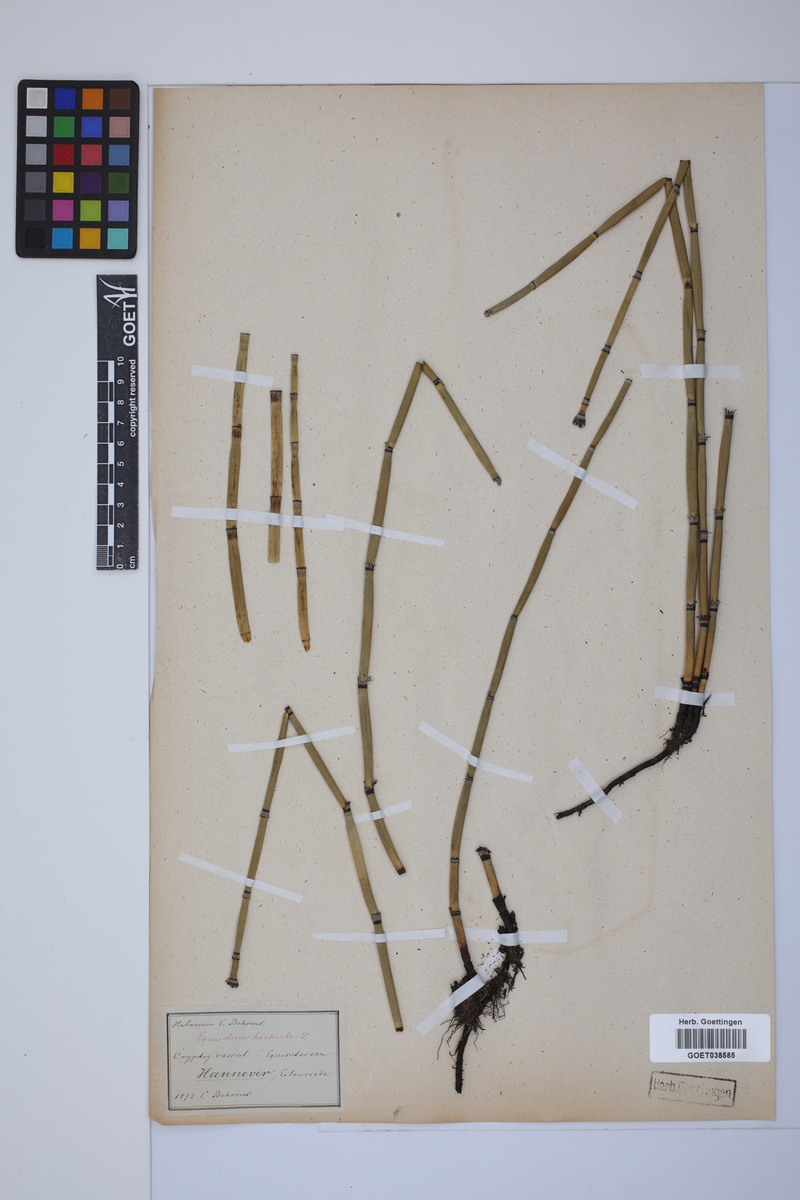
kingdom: Plantae
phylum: Tracheophyta
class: Polypodiopsida
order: Equisetales
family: Equisetaceae
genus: Equisetum
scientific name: Equisetum hyemale
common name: Rough horsetail
